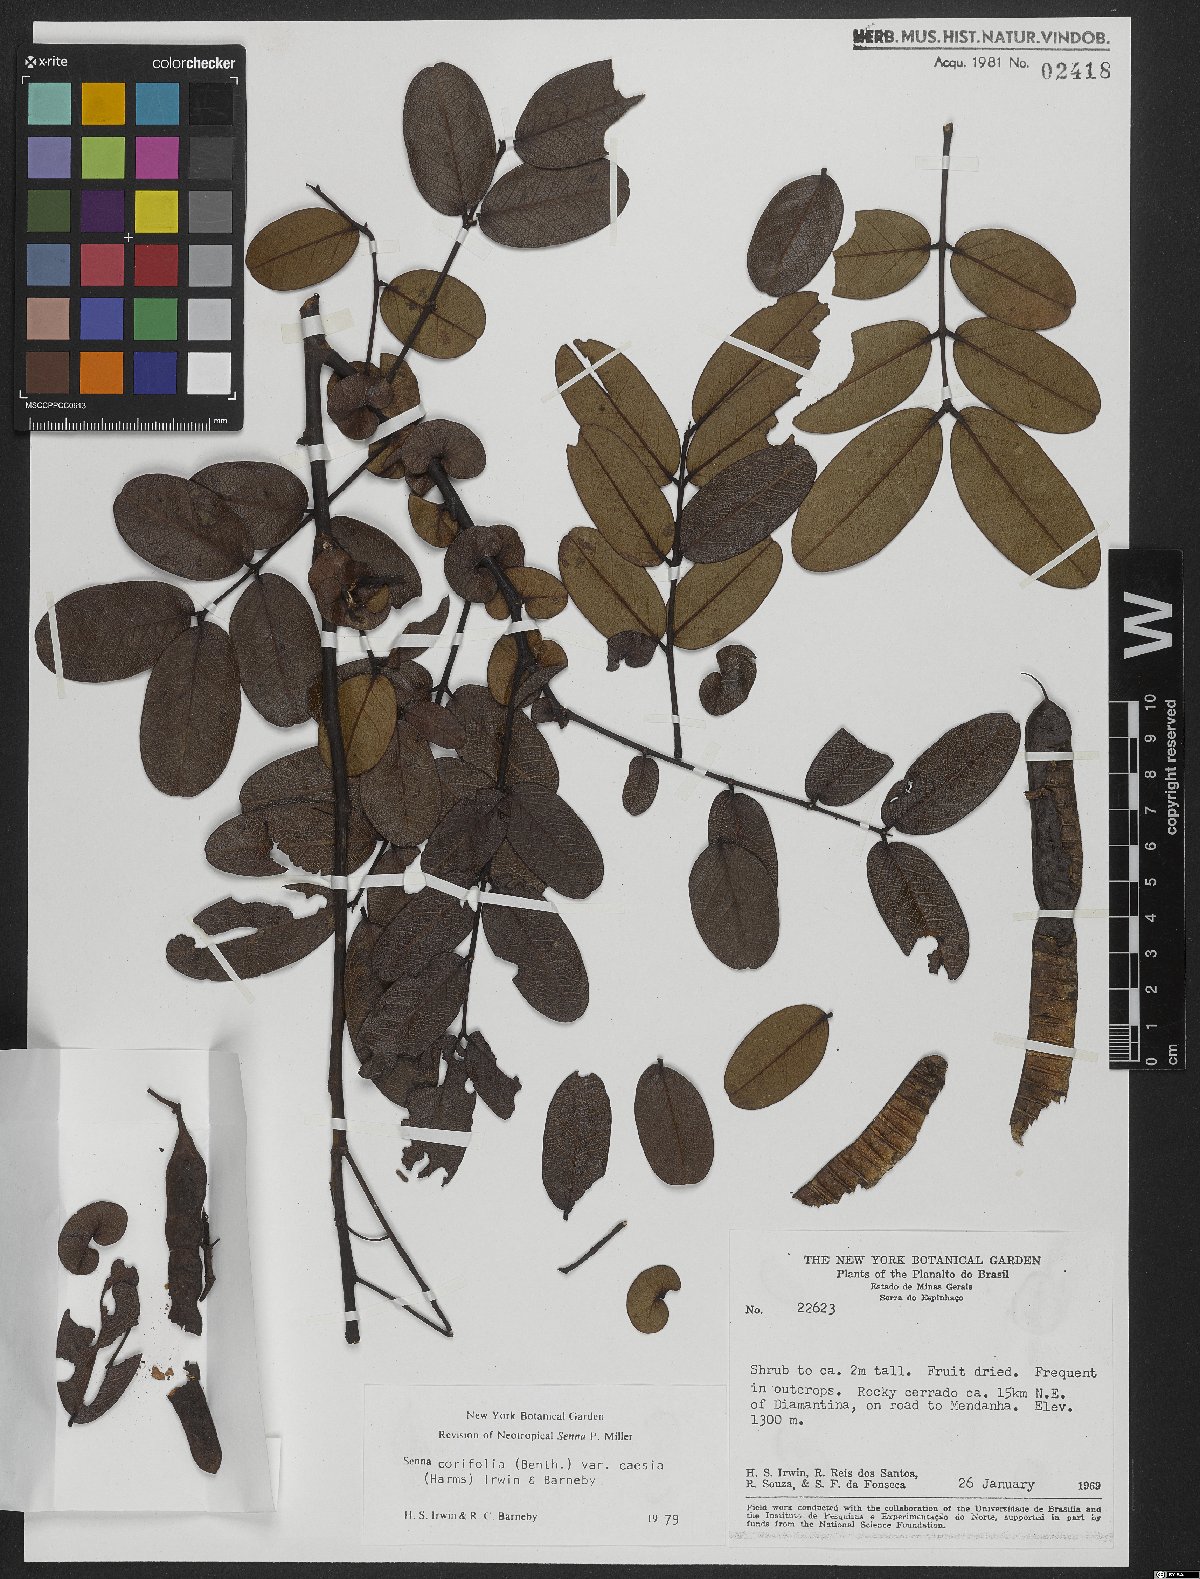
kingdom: Plantae
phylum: Tracheophyta
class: Magnoliopsida
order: Fabales
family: Fabaceae
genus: Senna
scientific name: Senna corifolia
